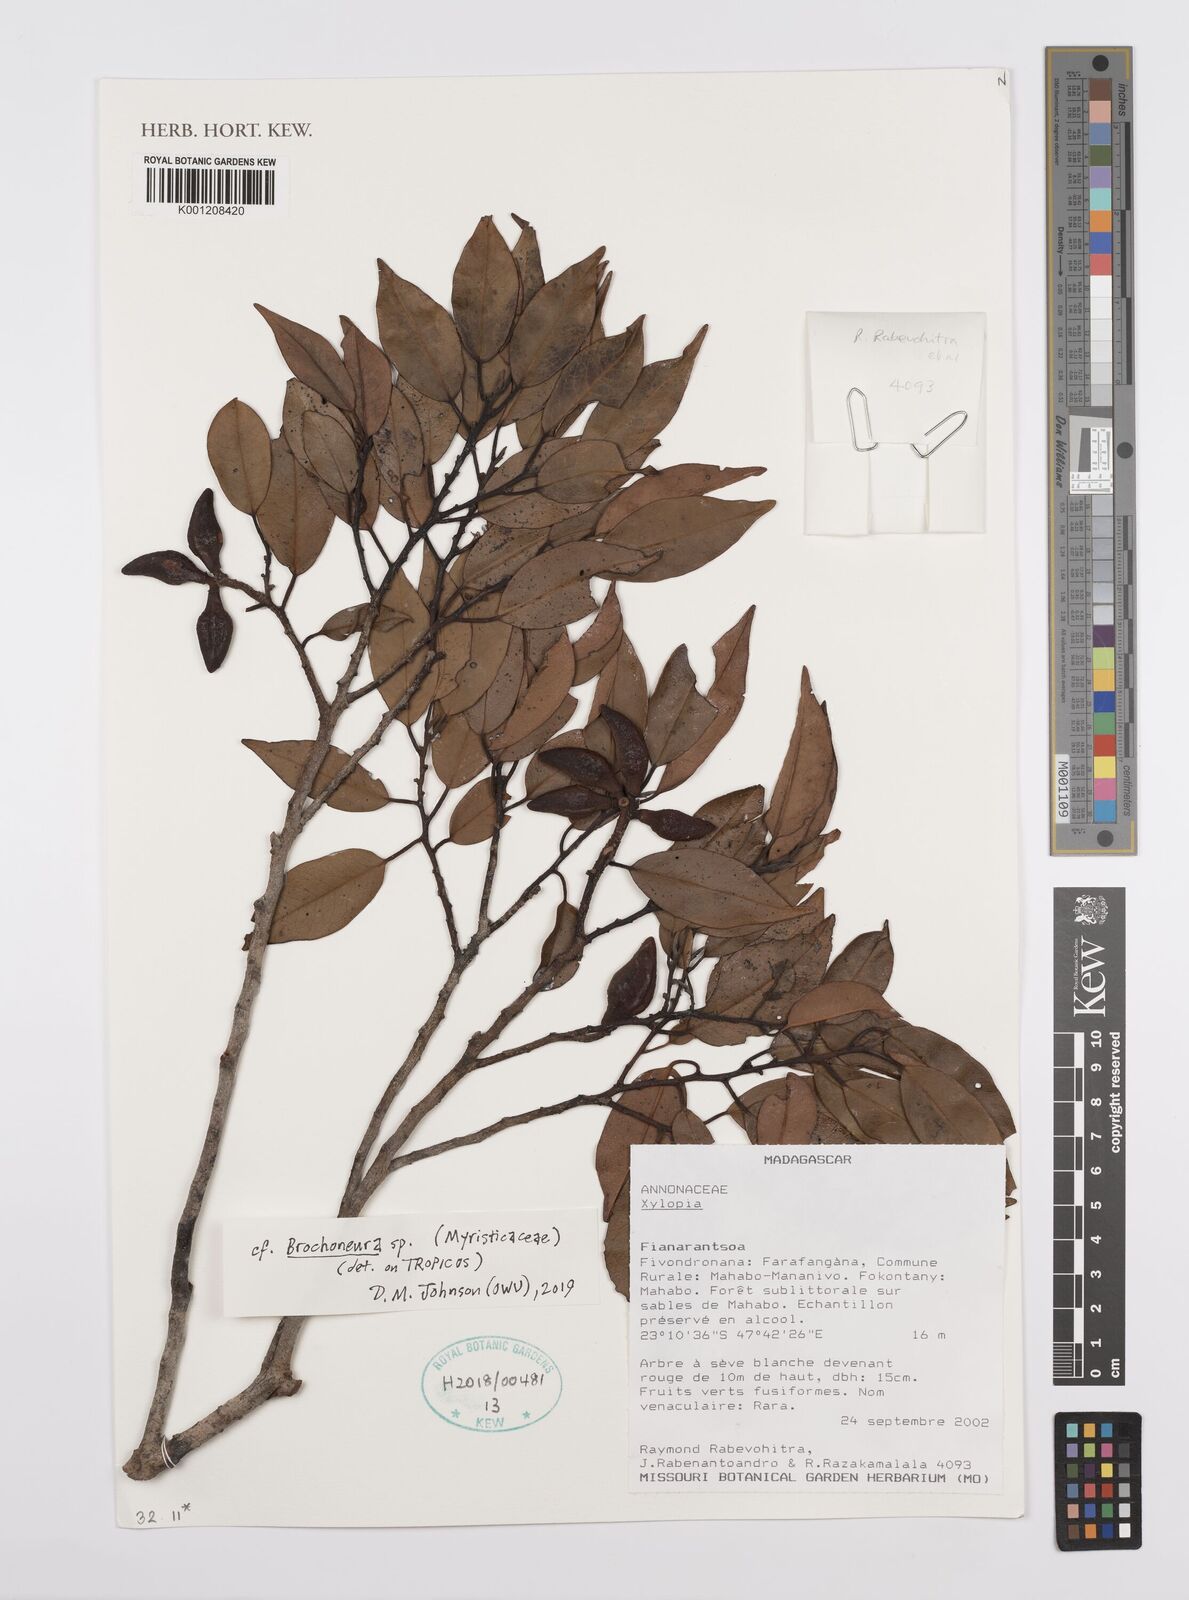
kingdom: Plantae
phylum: Tracheophyta
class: Magnoliopsida
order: Magnoliales
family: Annonaceae
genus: Xylopia
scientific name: Xylopia
